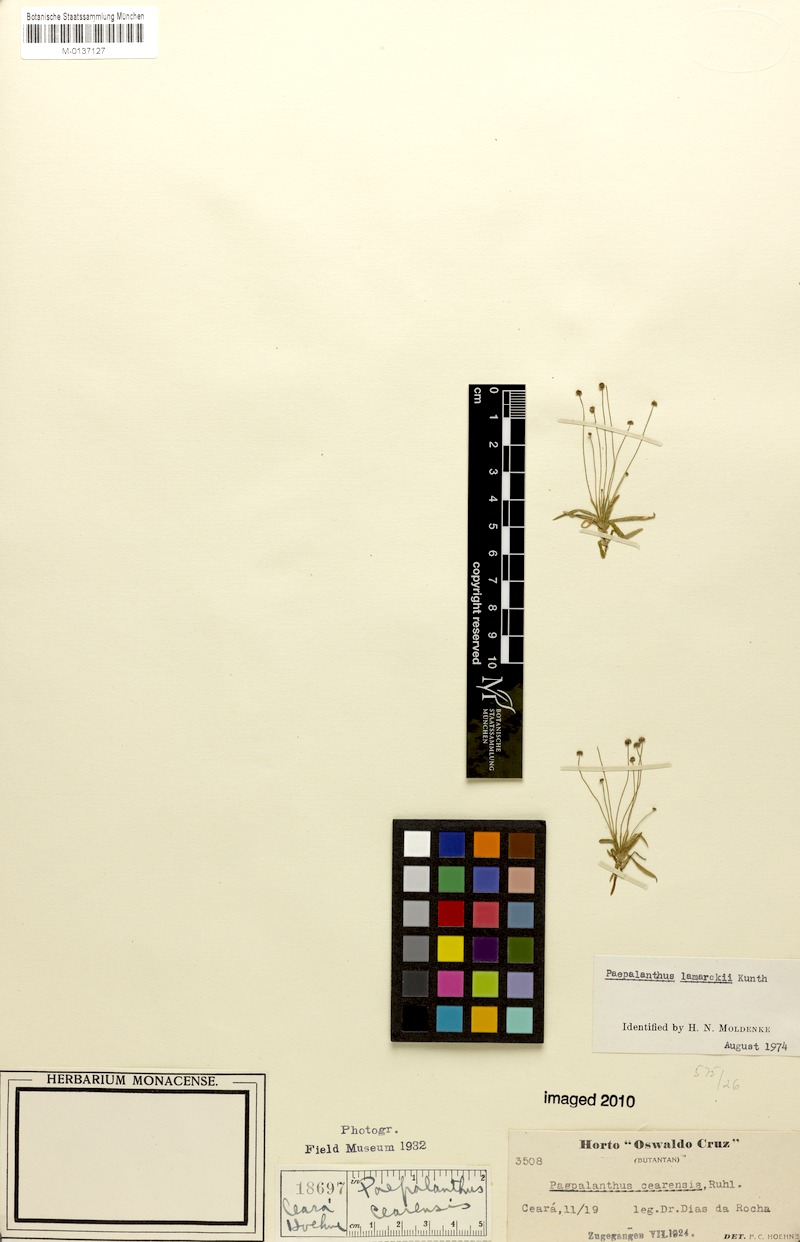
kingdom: Plantae
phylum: Tracheophyta
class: Liliopsida
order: Poales
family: Eriocaulaceae
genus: Paepalanthus
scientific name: Paepalanthus lamarckii
